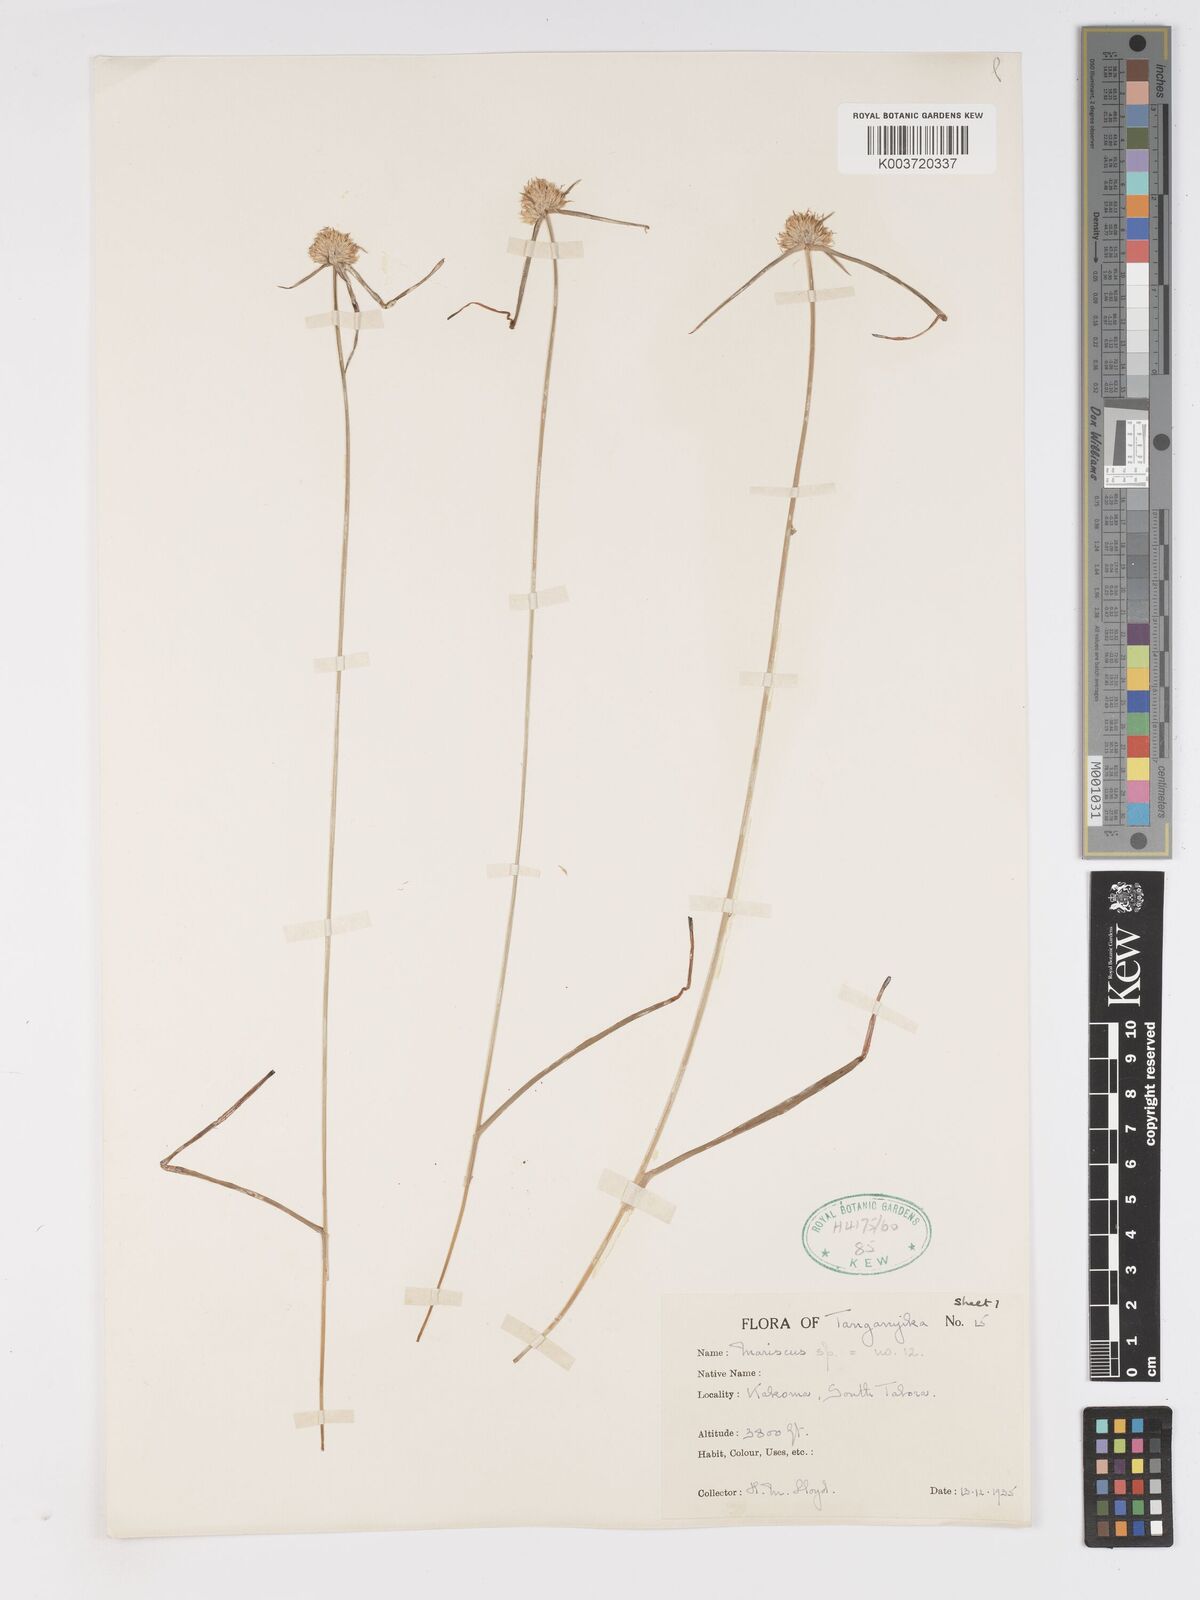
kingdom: Plantae
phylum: Tracheophyta
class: Liliopsida
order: Poales
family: Cyperaceae
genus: Cyperus
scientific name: Cyperus
